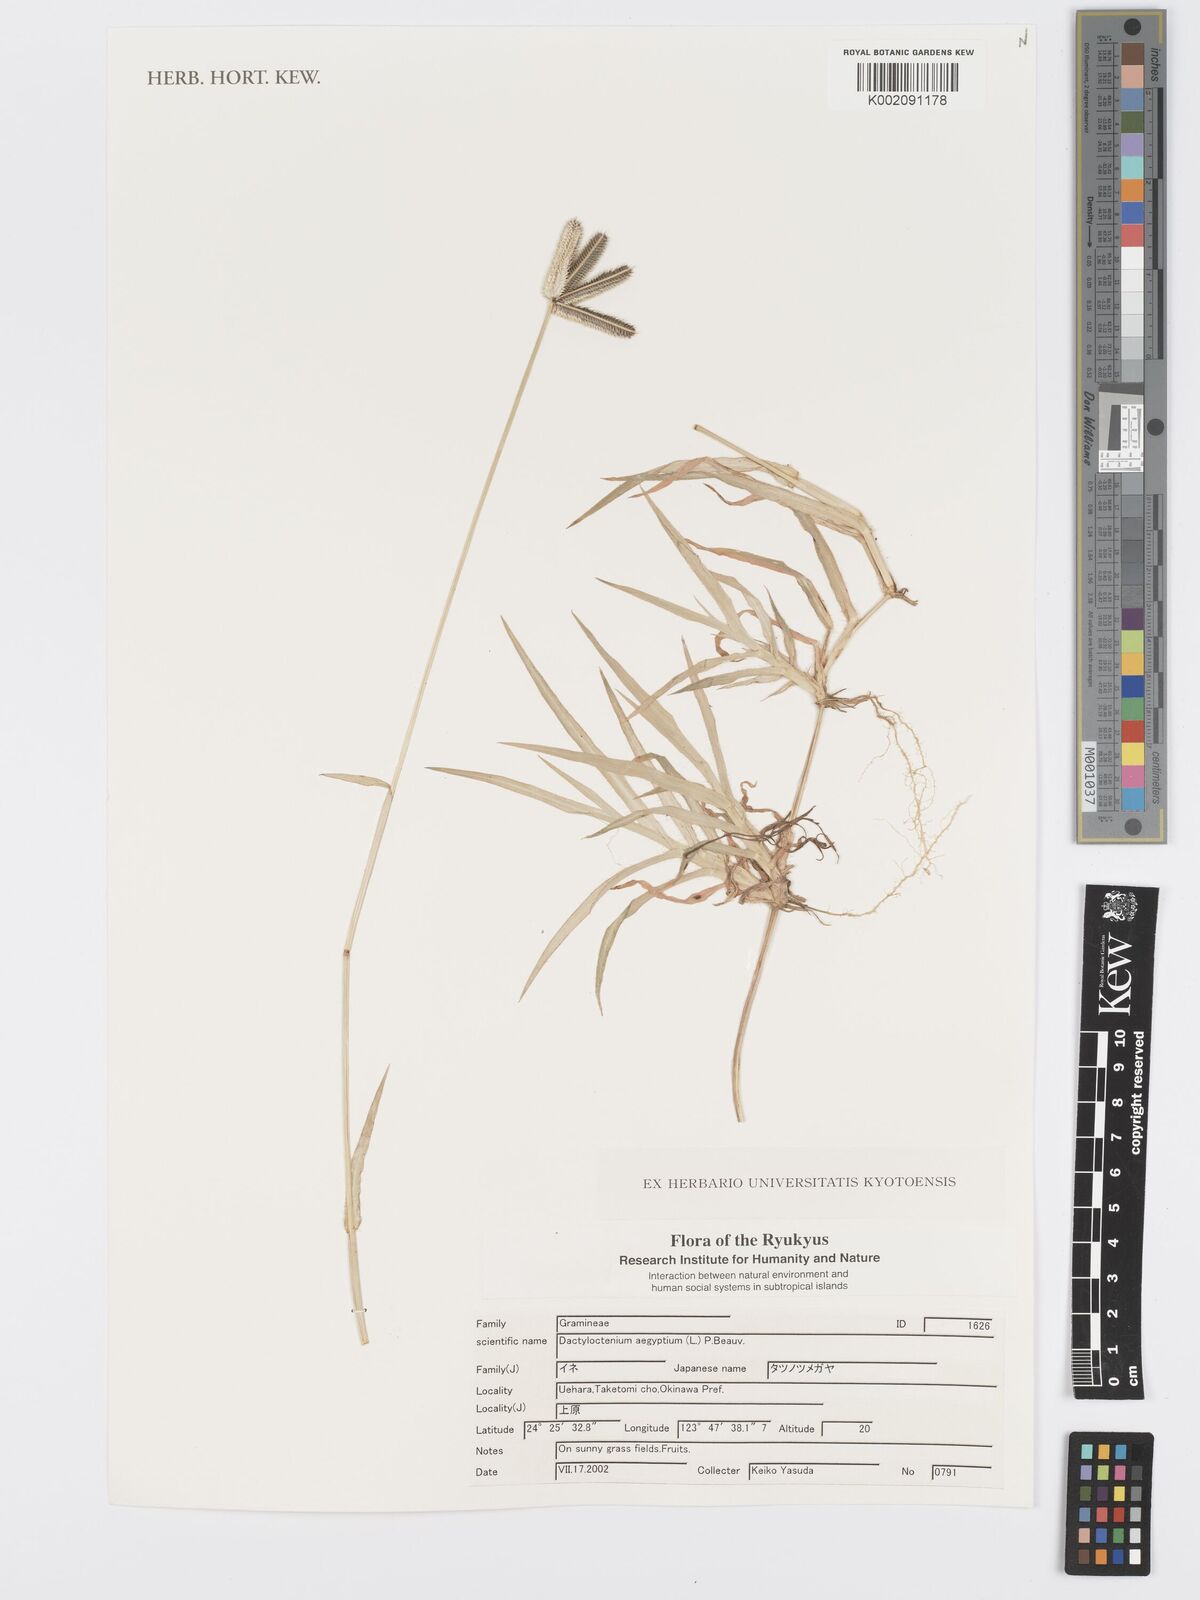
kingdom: Plantae
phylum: Tracheophyta
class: Liliopsida
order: Poales
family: Poaceae
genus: Dactyloctenium
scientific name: Dactyloctenium
